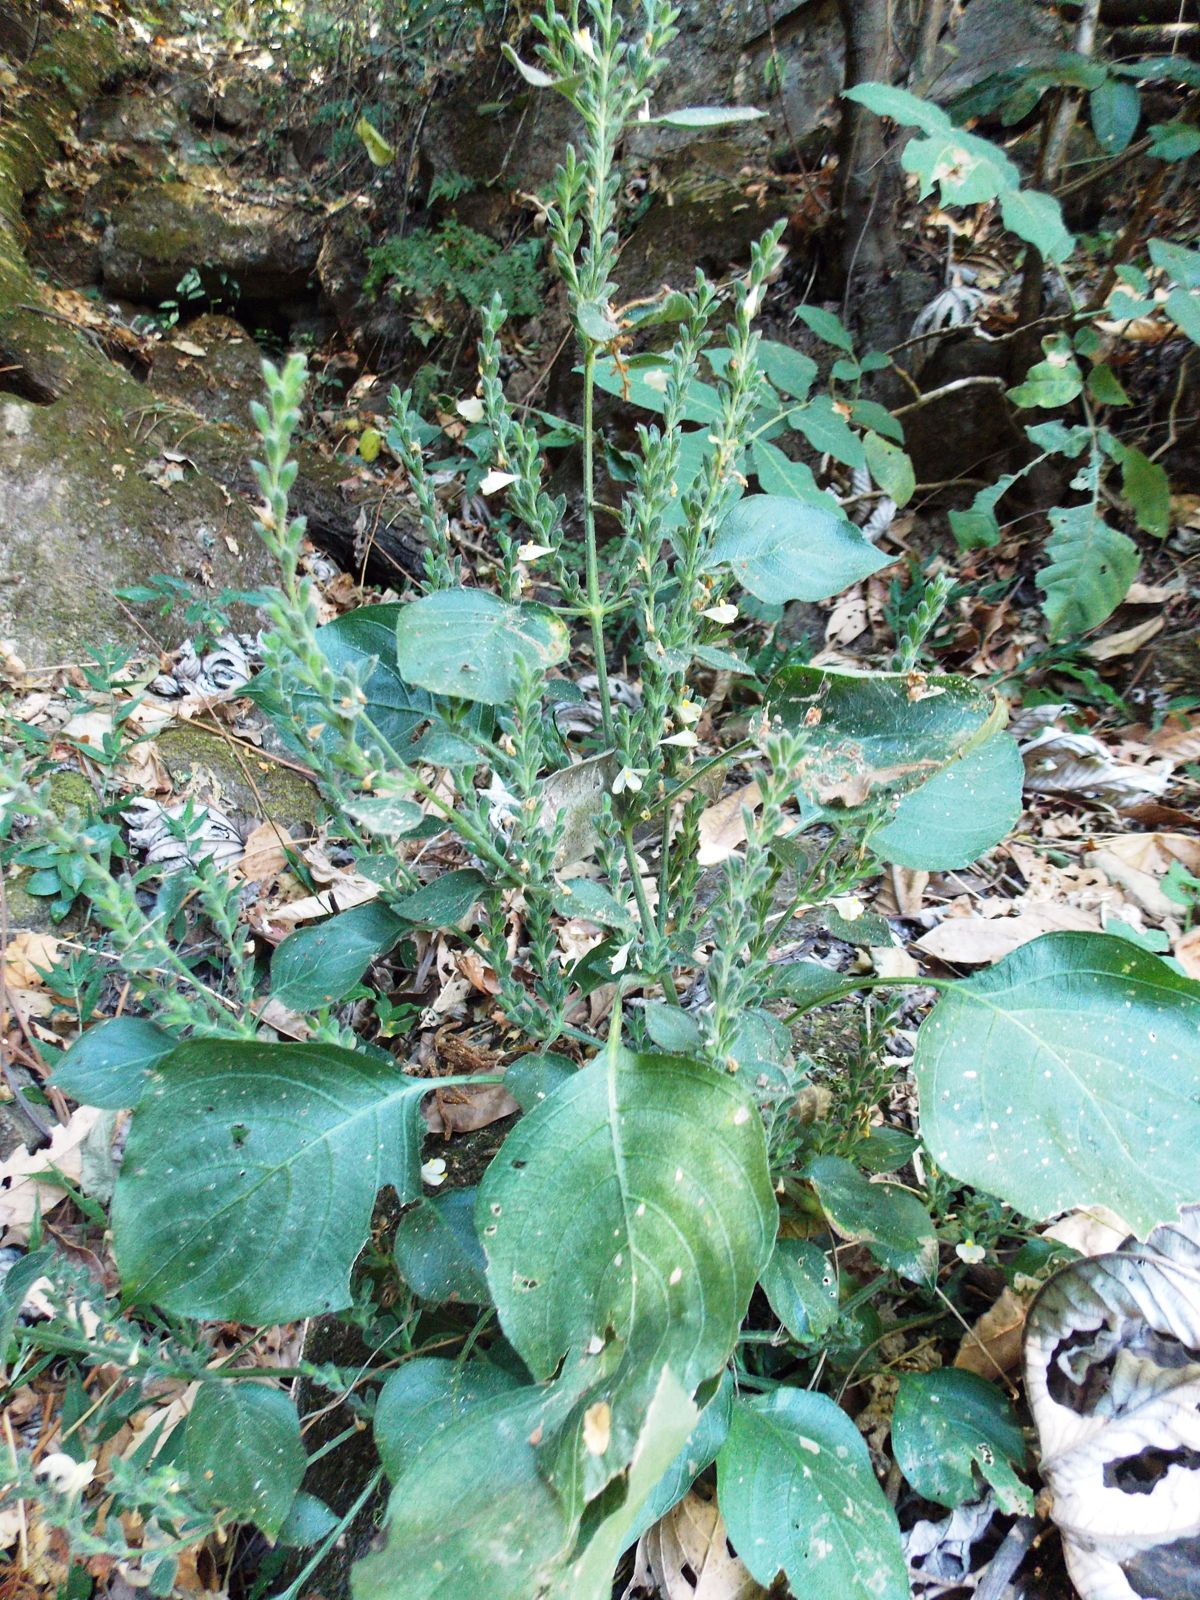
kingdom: Plantae
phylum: Tracheophyta
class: Magnoliopsida
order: Lamiales
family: Acanthaceae
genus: Henrya
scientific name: Henrya insularis
